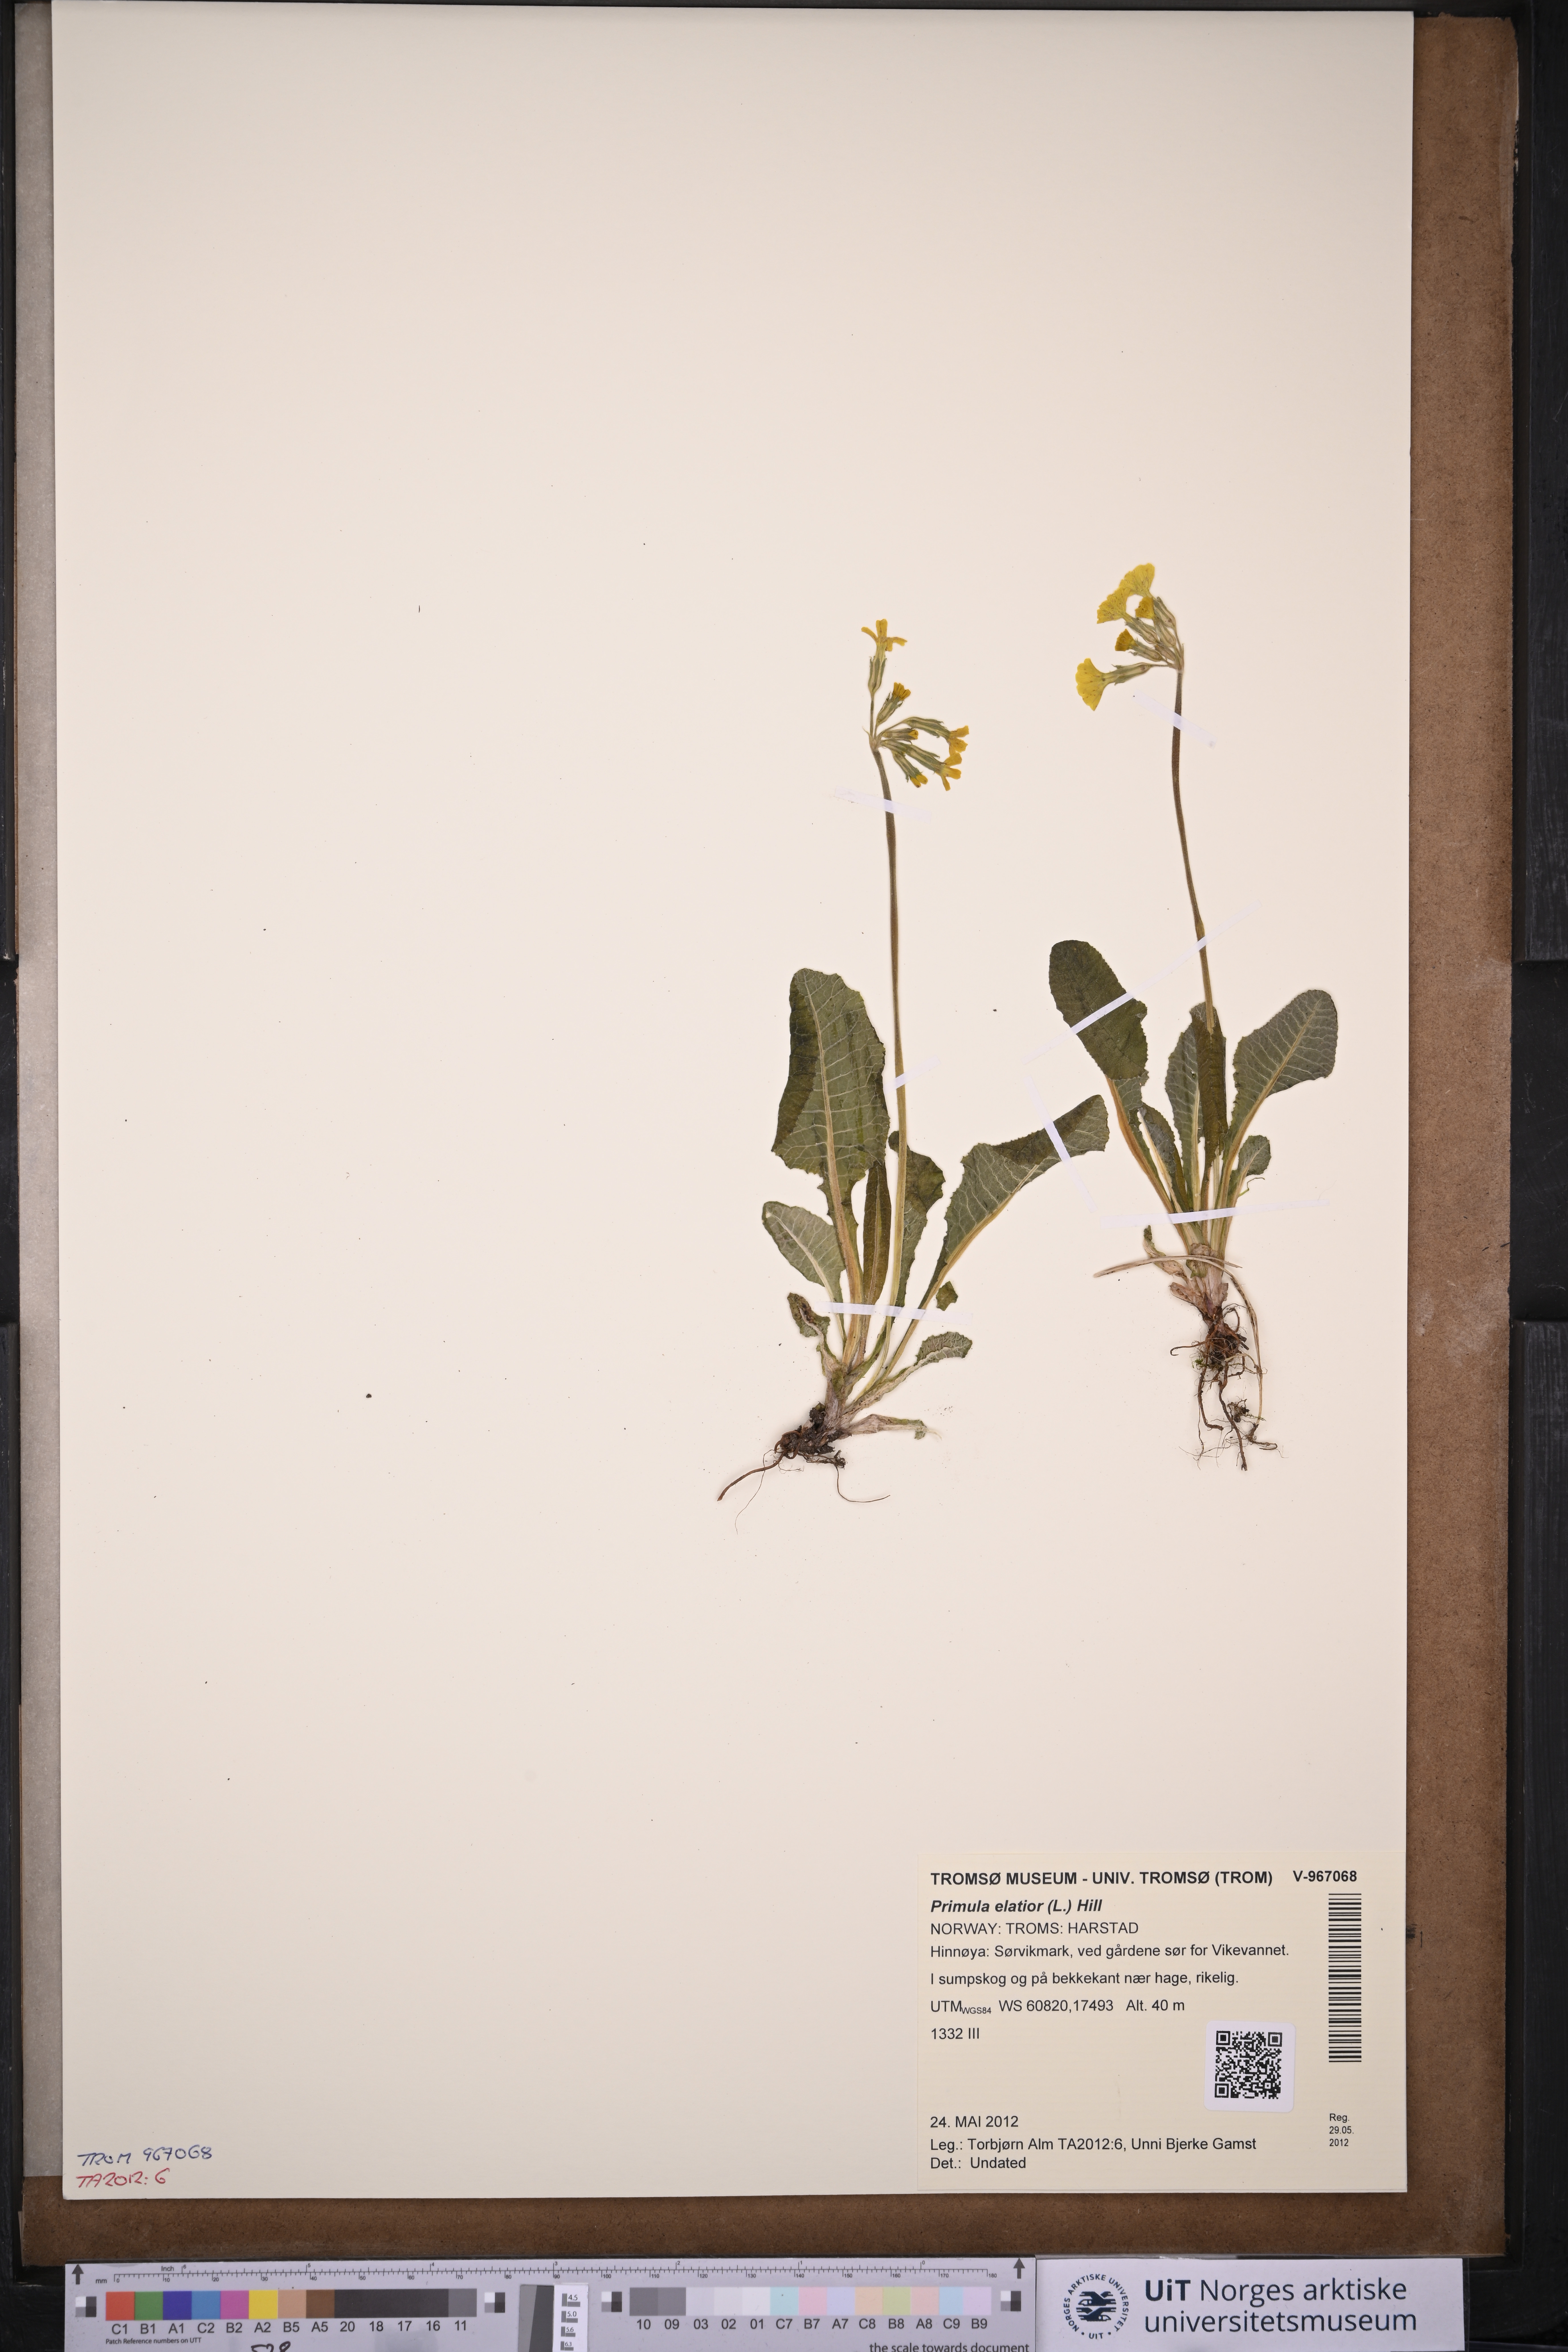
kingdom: Plantae
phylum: Tracheophyta
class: Magnoliopsida
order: Ericales
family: Primulaceae
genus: Primula
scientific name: Primula elatior
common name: Oxlip
